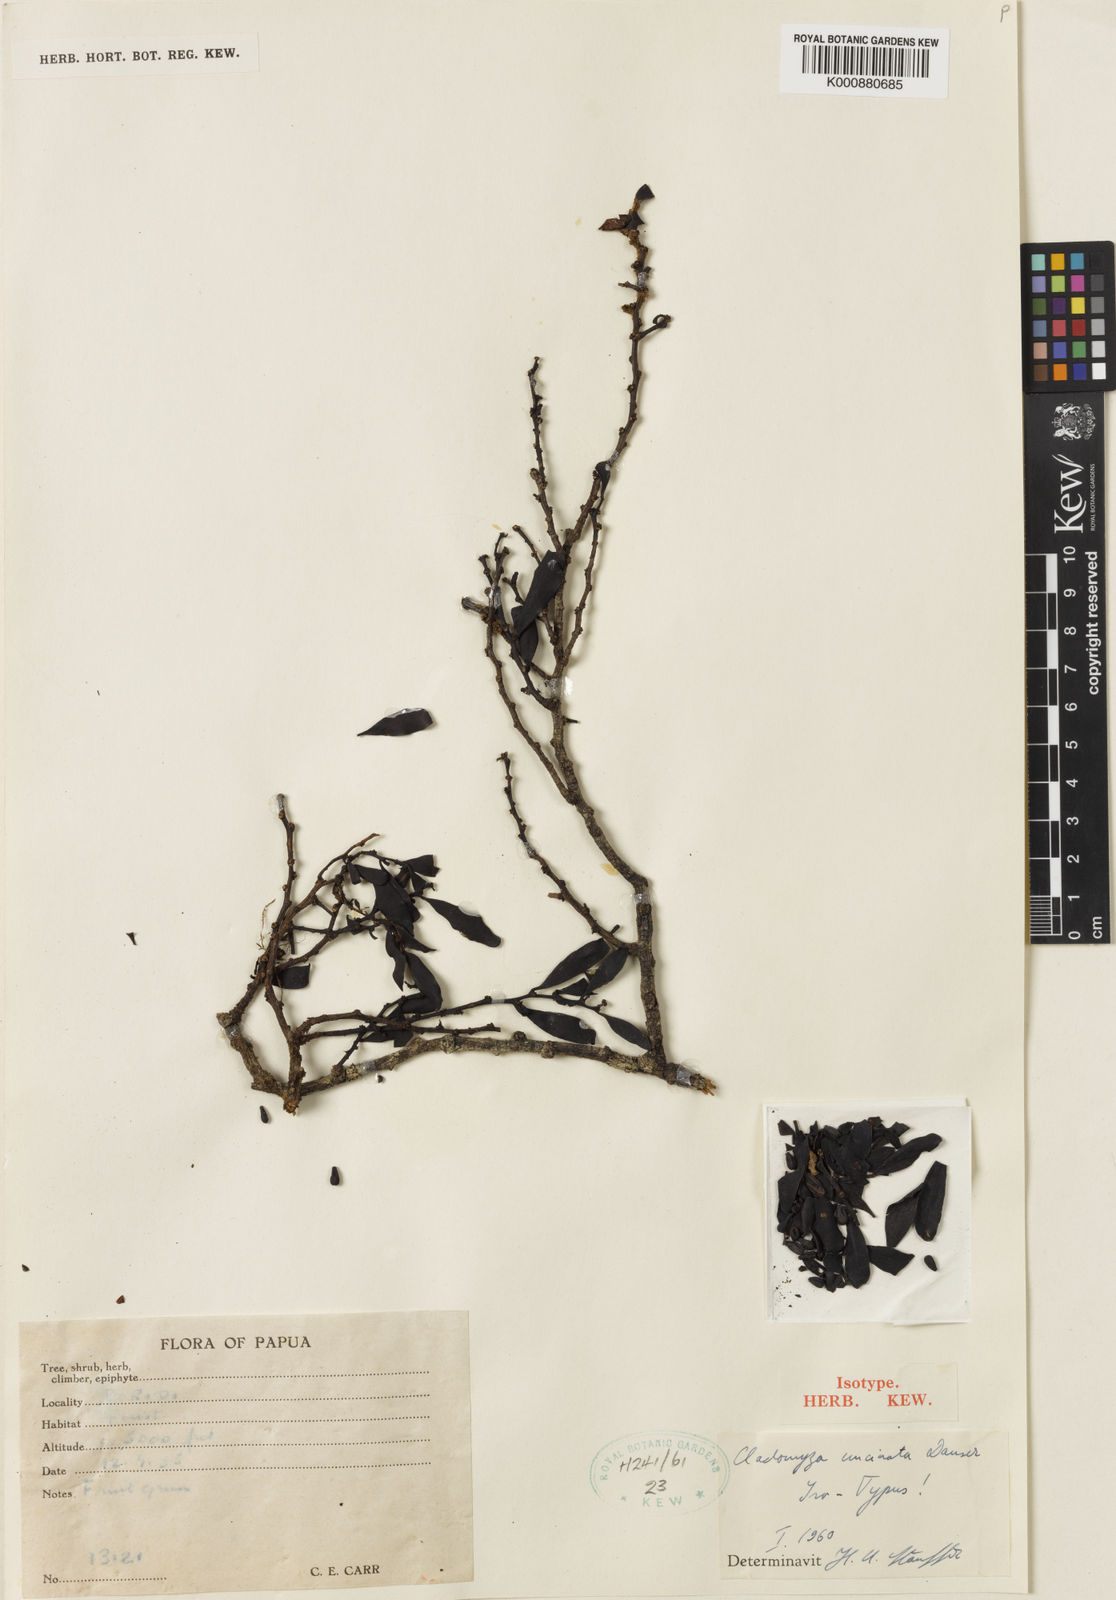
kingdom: Plantae
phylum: Tracheophyta
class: Magnoliopsida
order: Santalales
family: Amphorogynaceae
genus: Cladomyza
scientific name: Cladomyza uncinata
